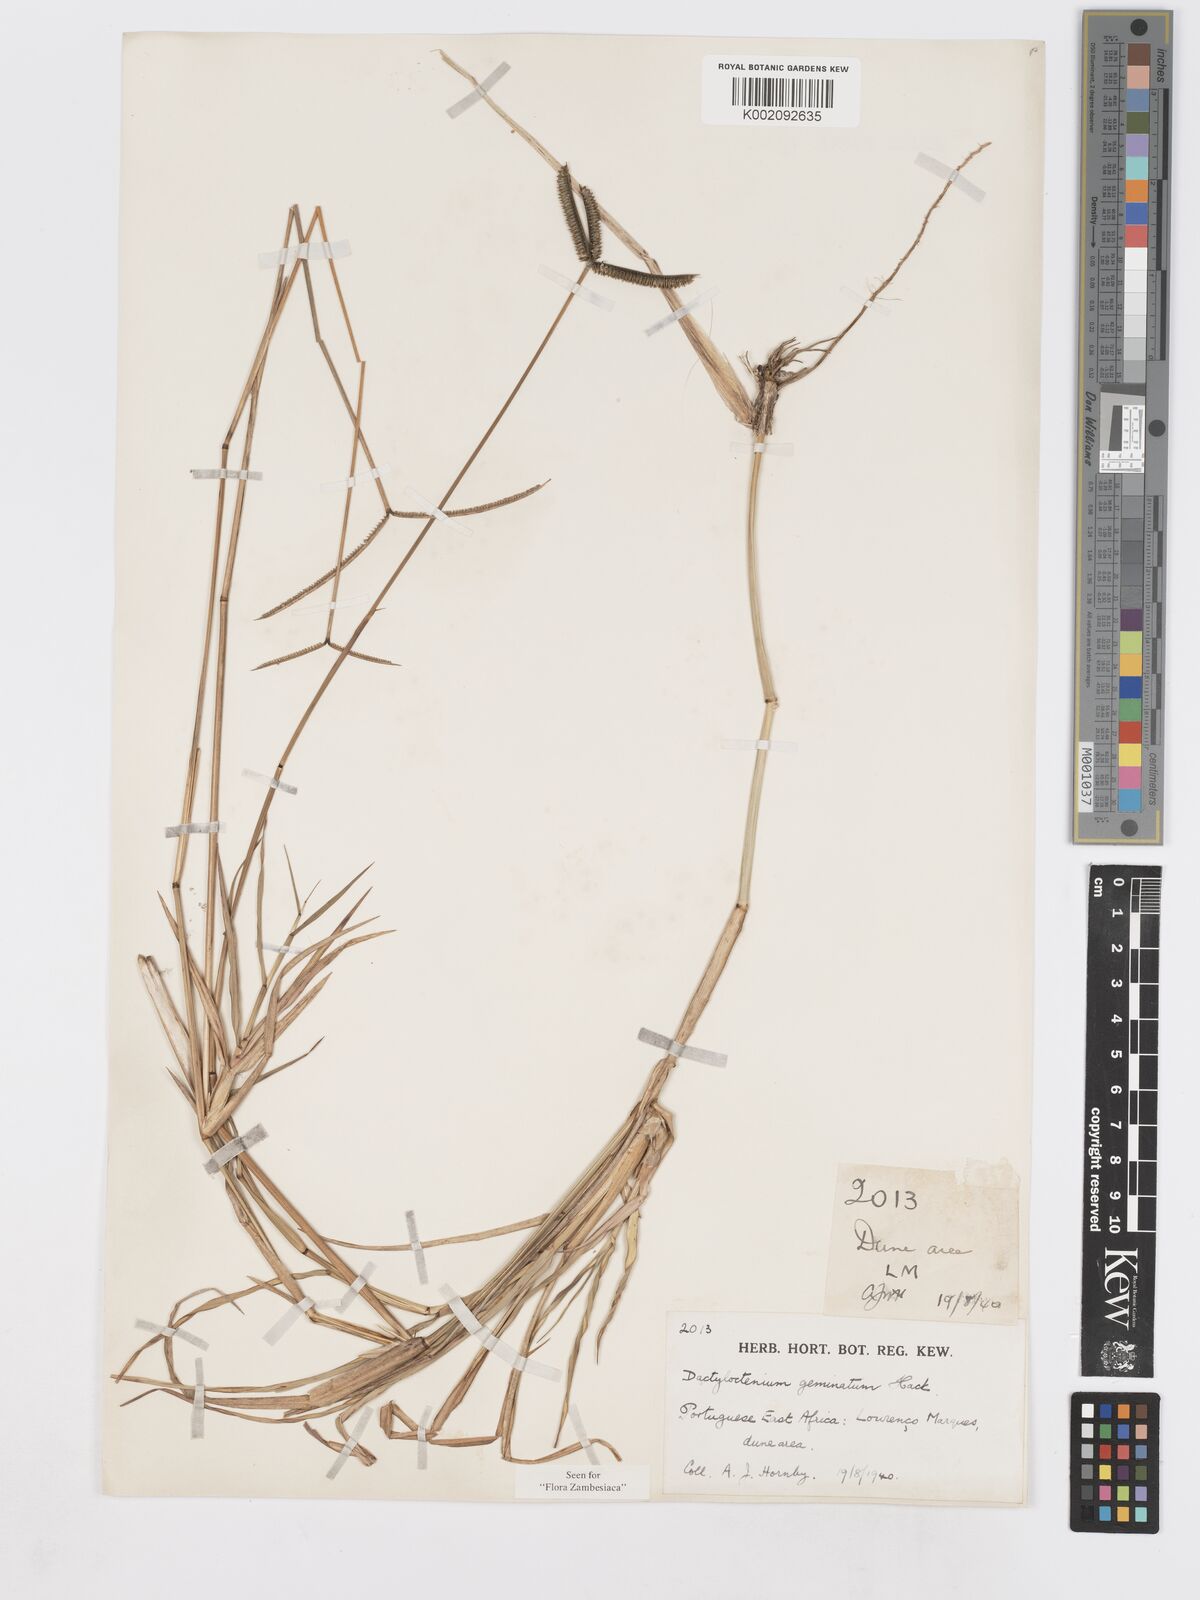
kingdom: Plantae
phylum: Tracheophyta
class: Liliopsida
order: Poales
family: Poaceae
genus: Dactyloctenium
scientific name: Dactyloctenium geminatum
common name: Crowsfoot grass
